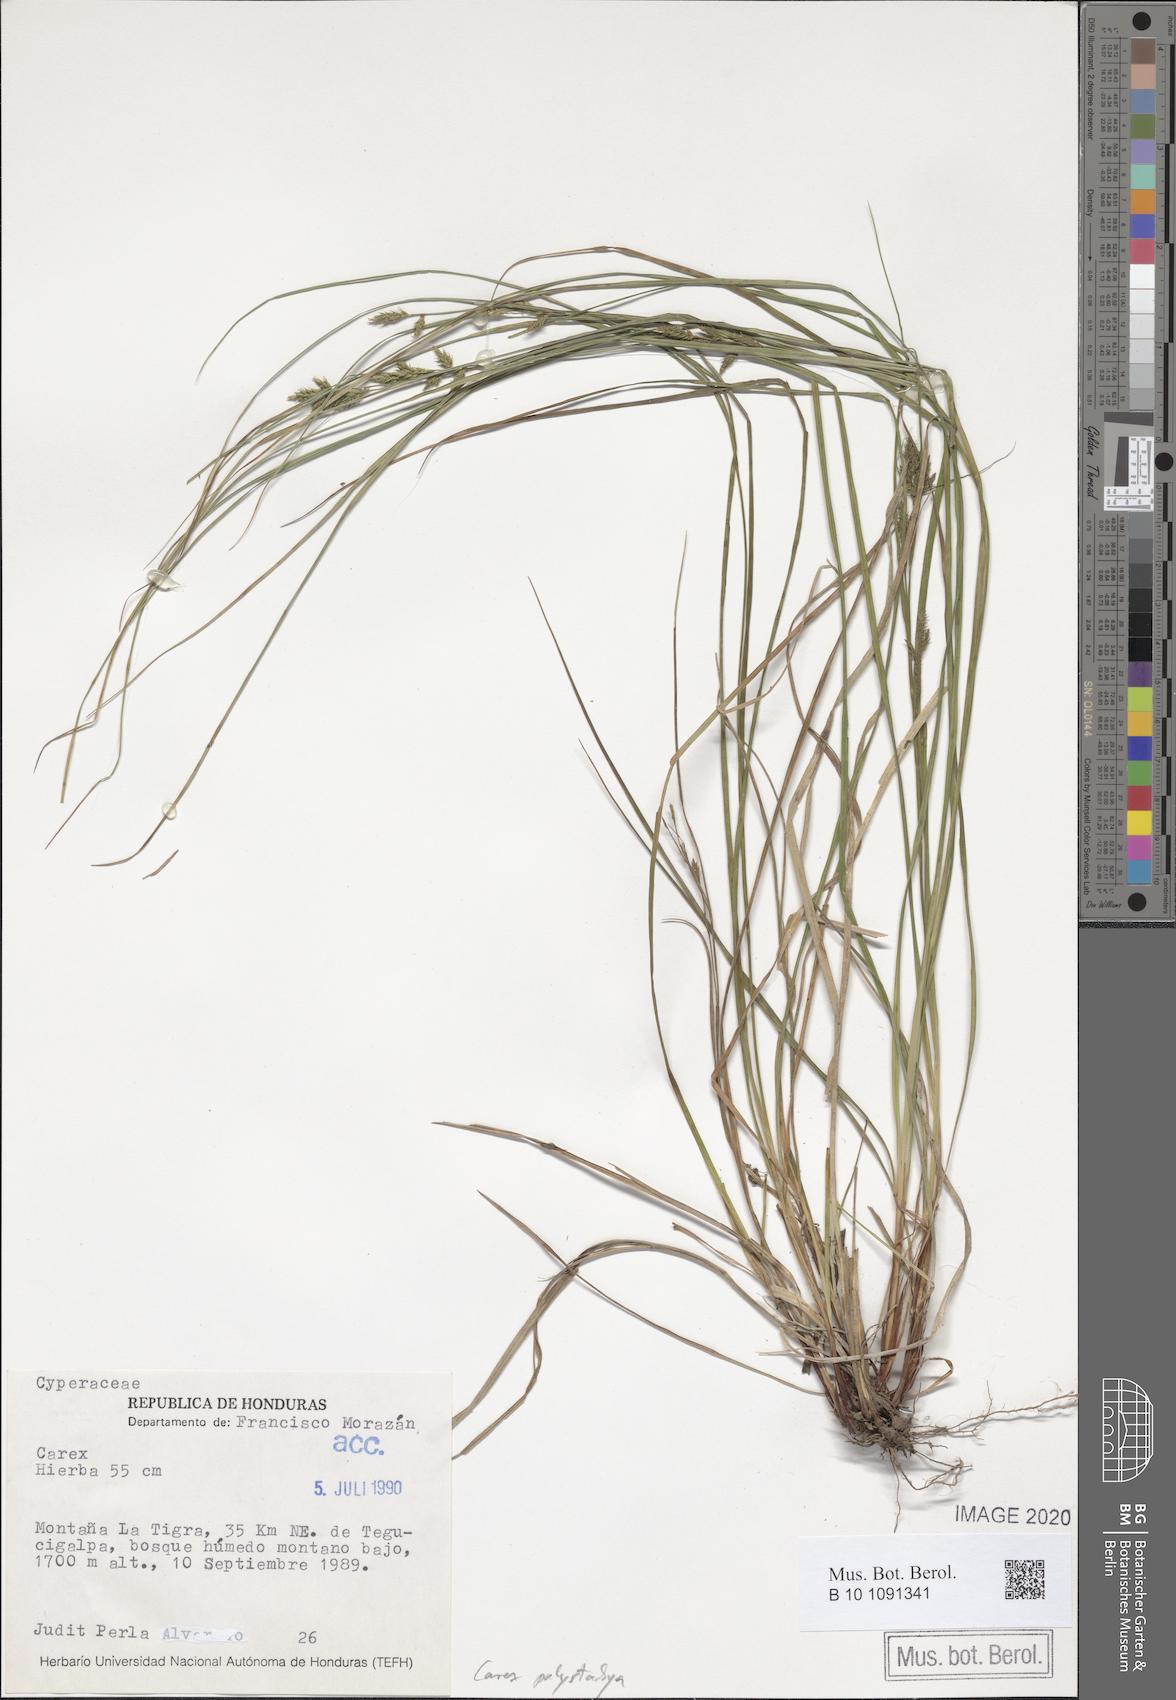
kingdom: Plantae
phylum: Tracheophyta
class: Liliopsida
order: Poales
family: Cyperaceae
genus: Carex
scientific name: Carex polystachya
